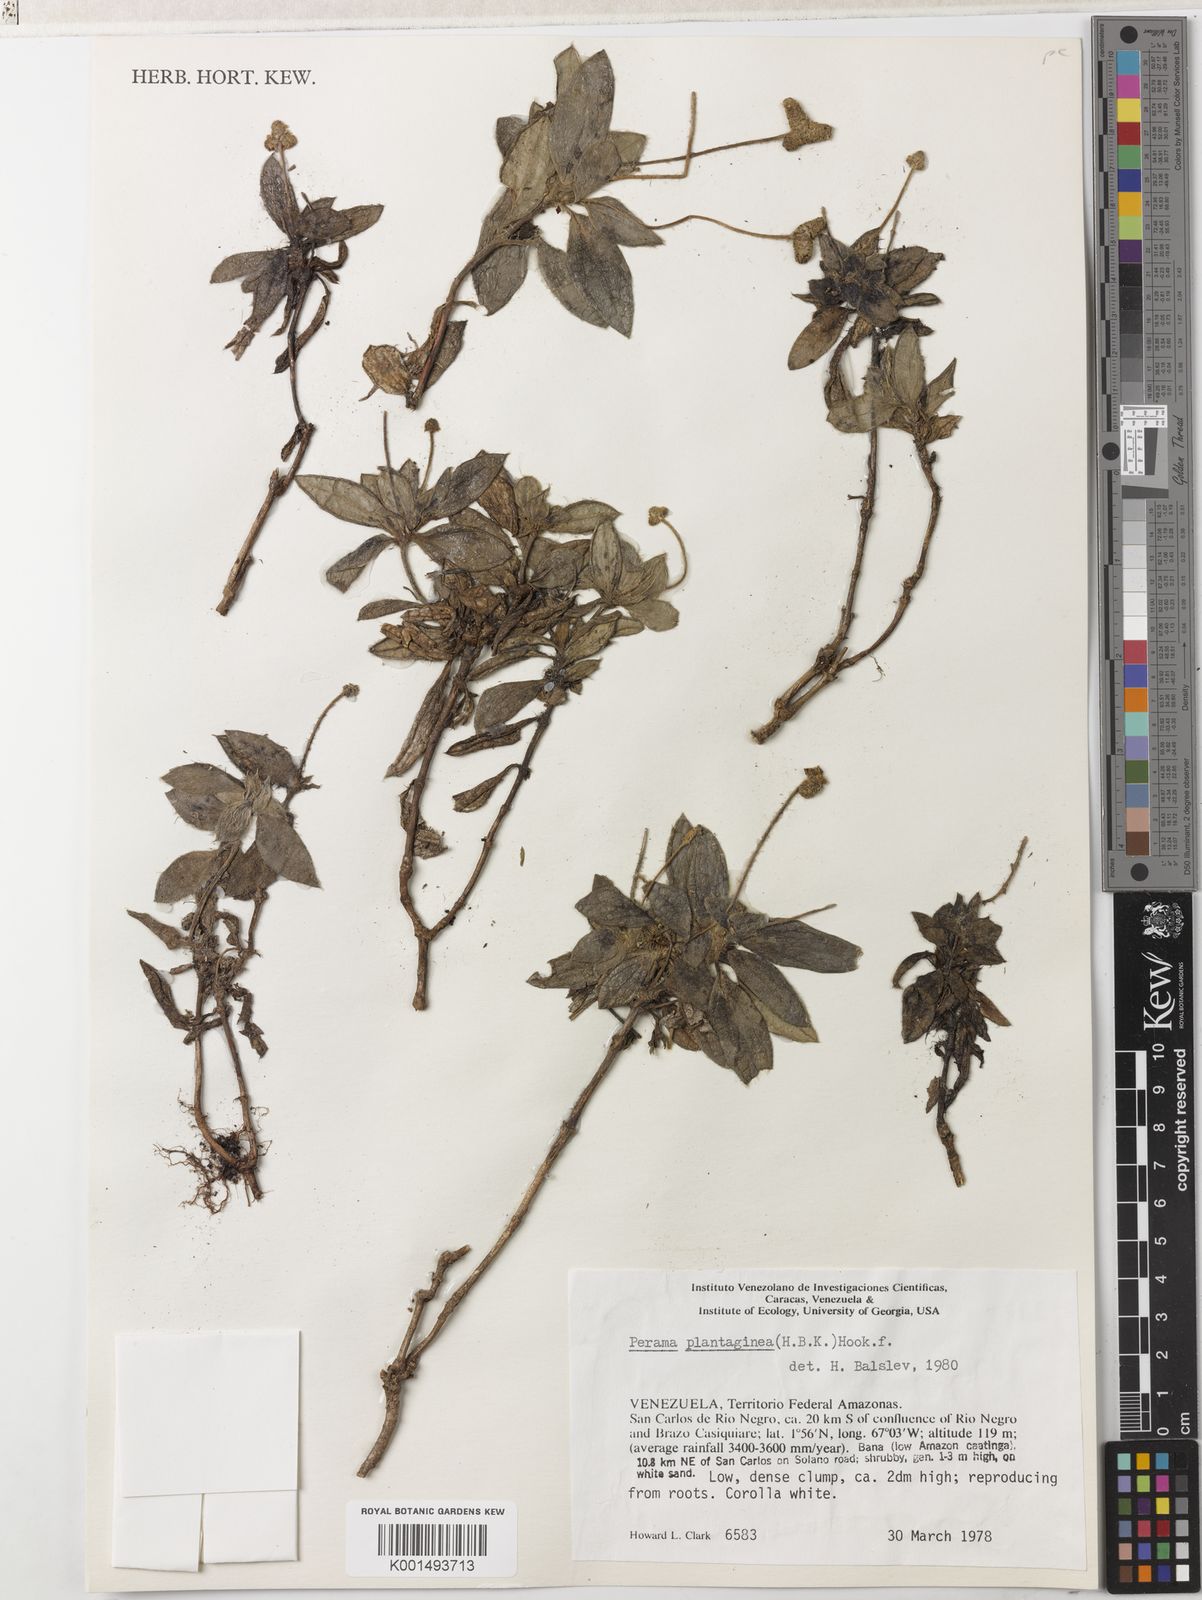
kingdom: Plantae
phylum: Tracheophyta
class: Magnoliopsida
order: Gentianales
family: Rubiaceae
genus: Perama
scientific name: Perama plantaginea
